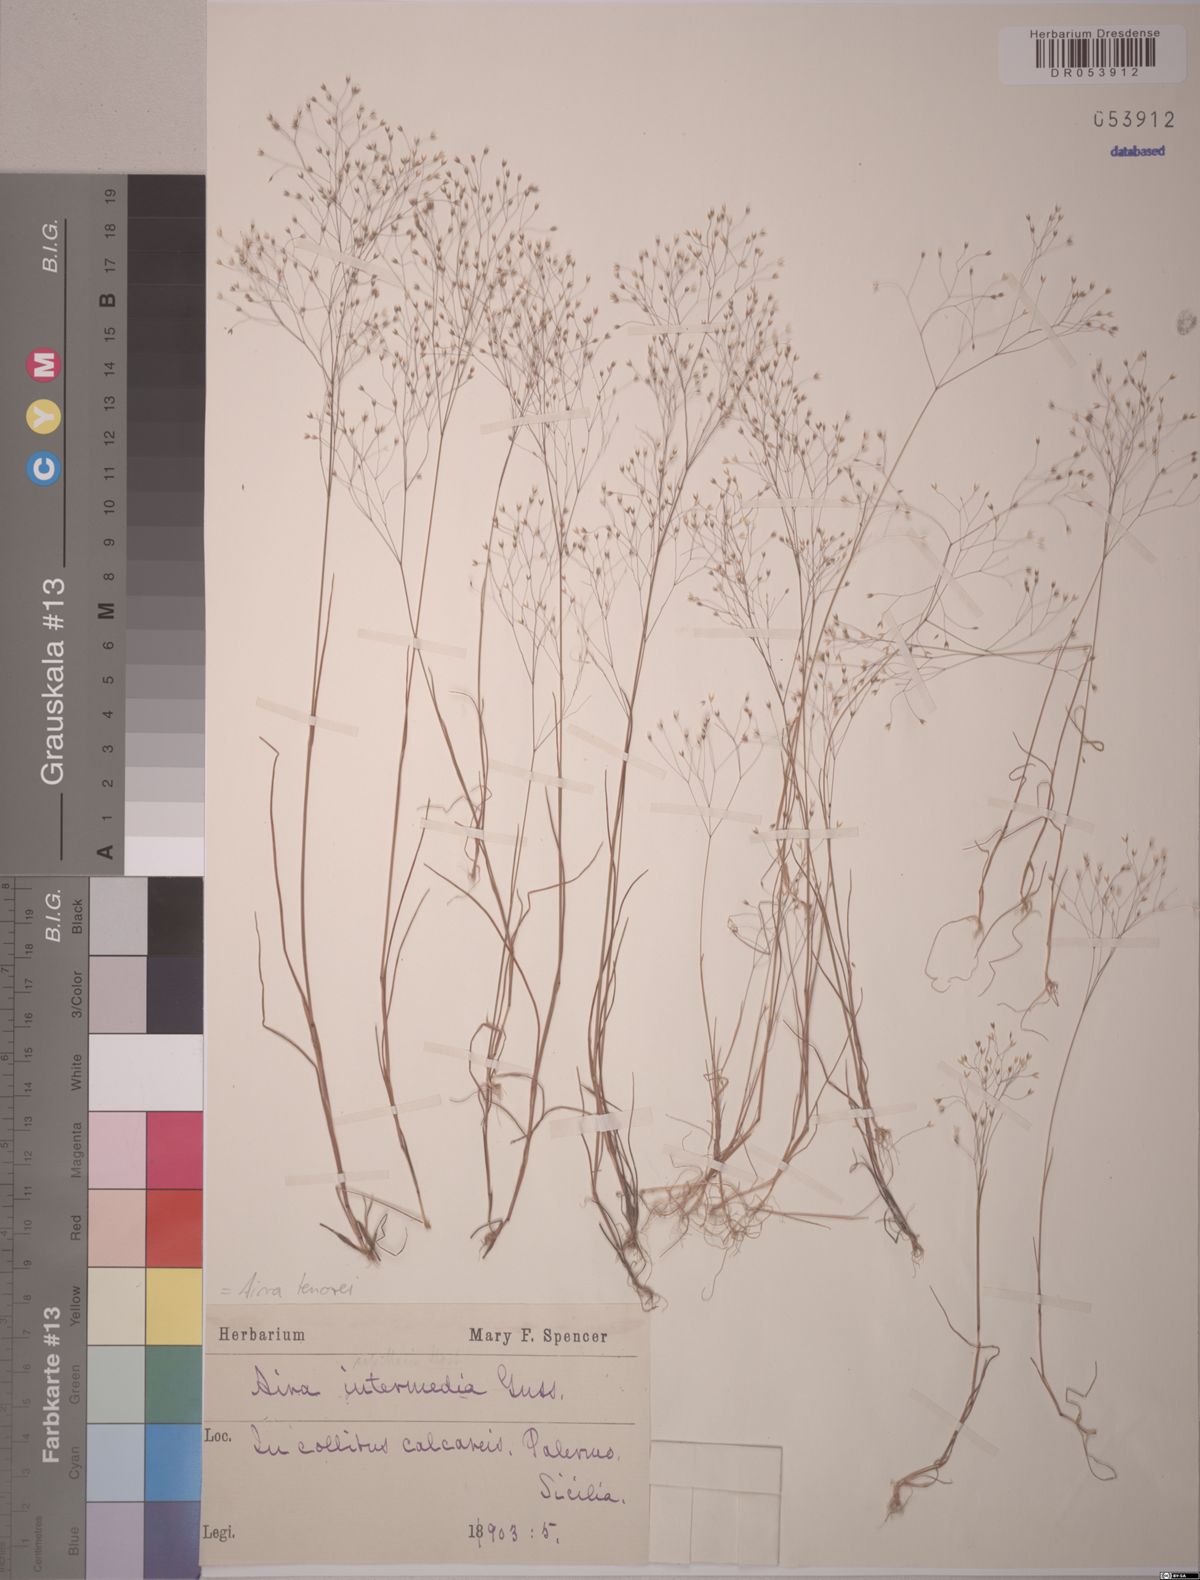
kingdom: Plantae
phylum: Tracheophyta
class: Liliopsida
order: Poales
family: Poaceae
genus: Aira
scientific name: Aira tenorei
